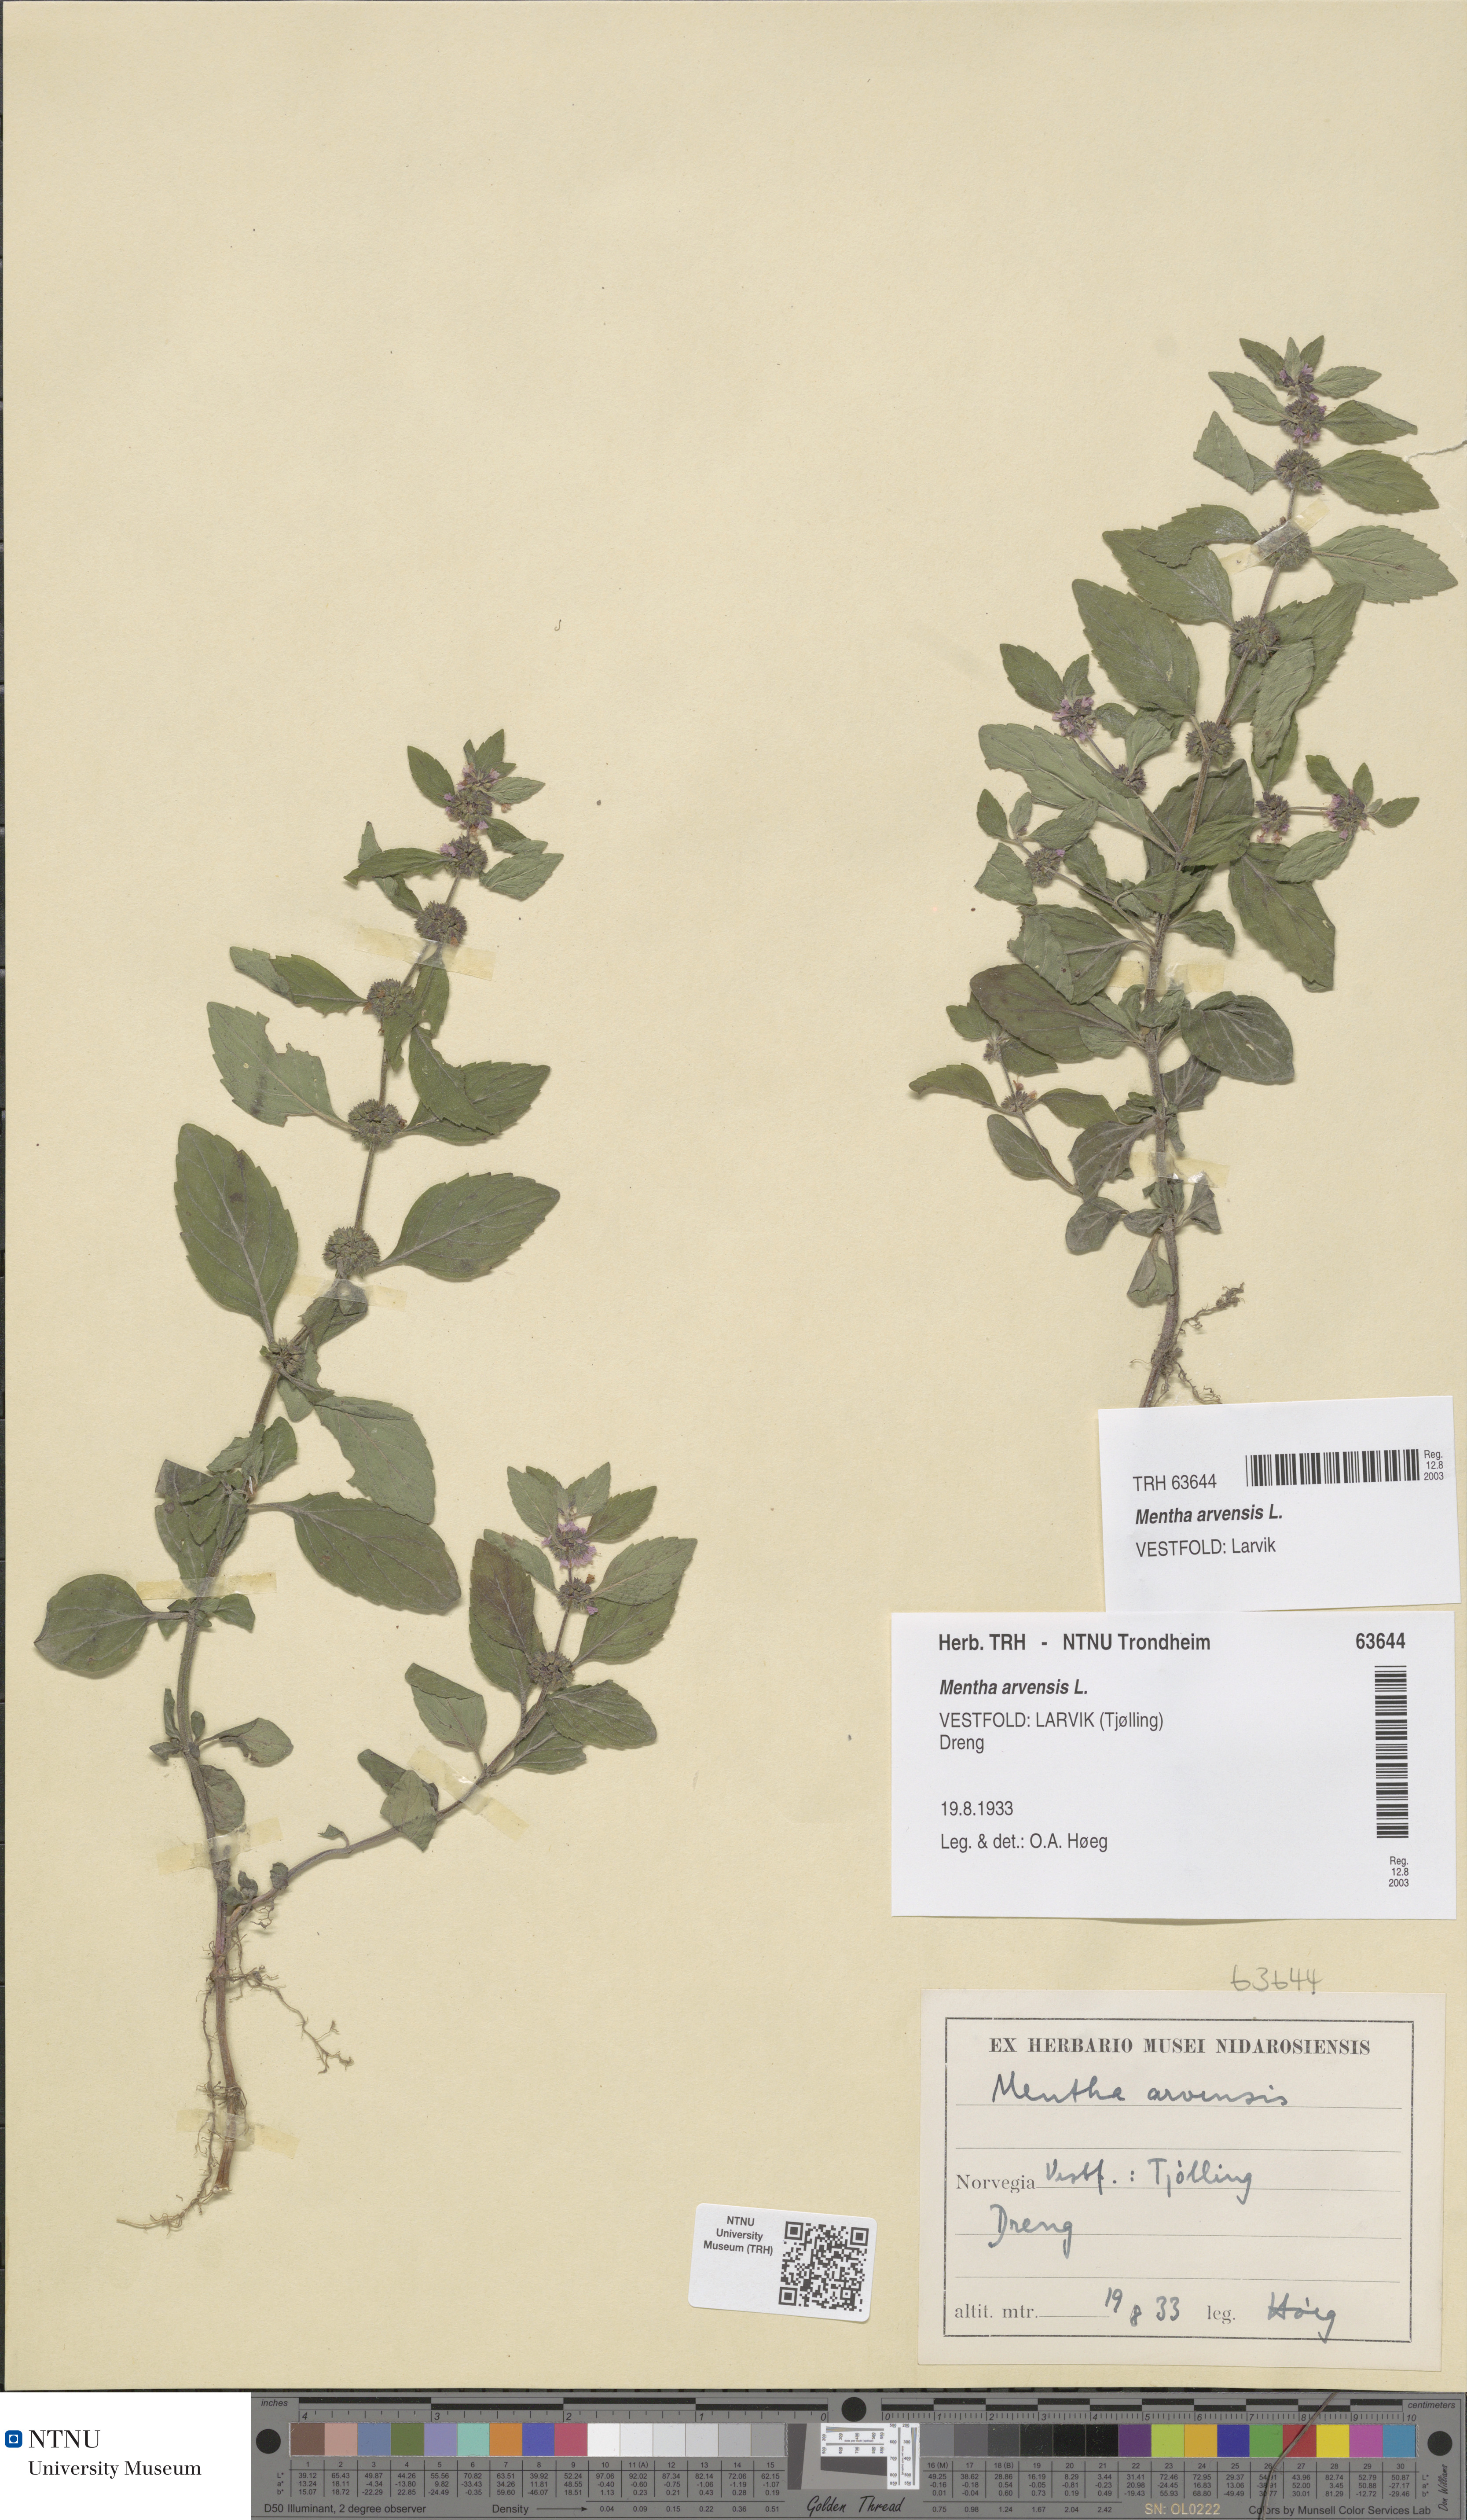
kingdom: Plantae
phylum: Tracheophyta
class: Magnoliopsida
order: Lamiales
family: Lamiaceae
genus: Mentha
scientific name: Mentha arvensis
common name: Corn mint
